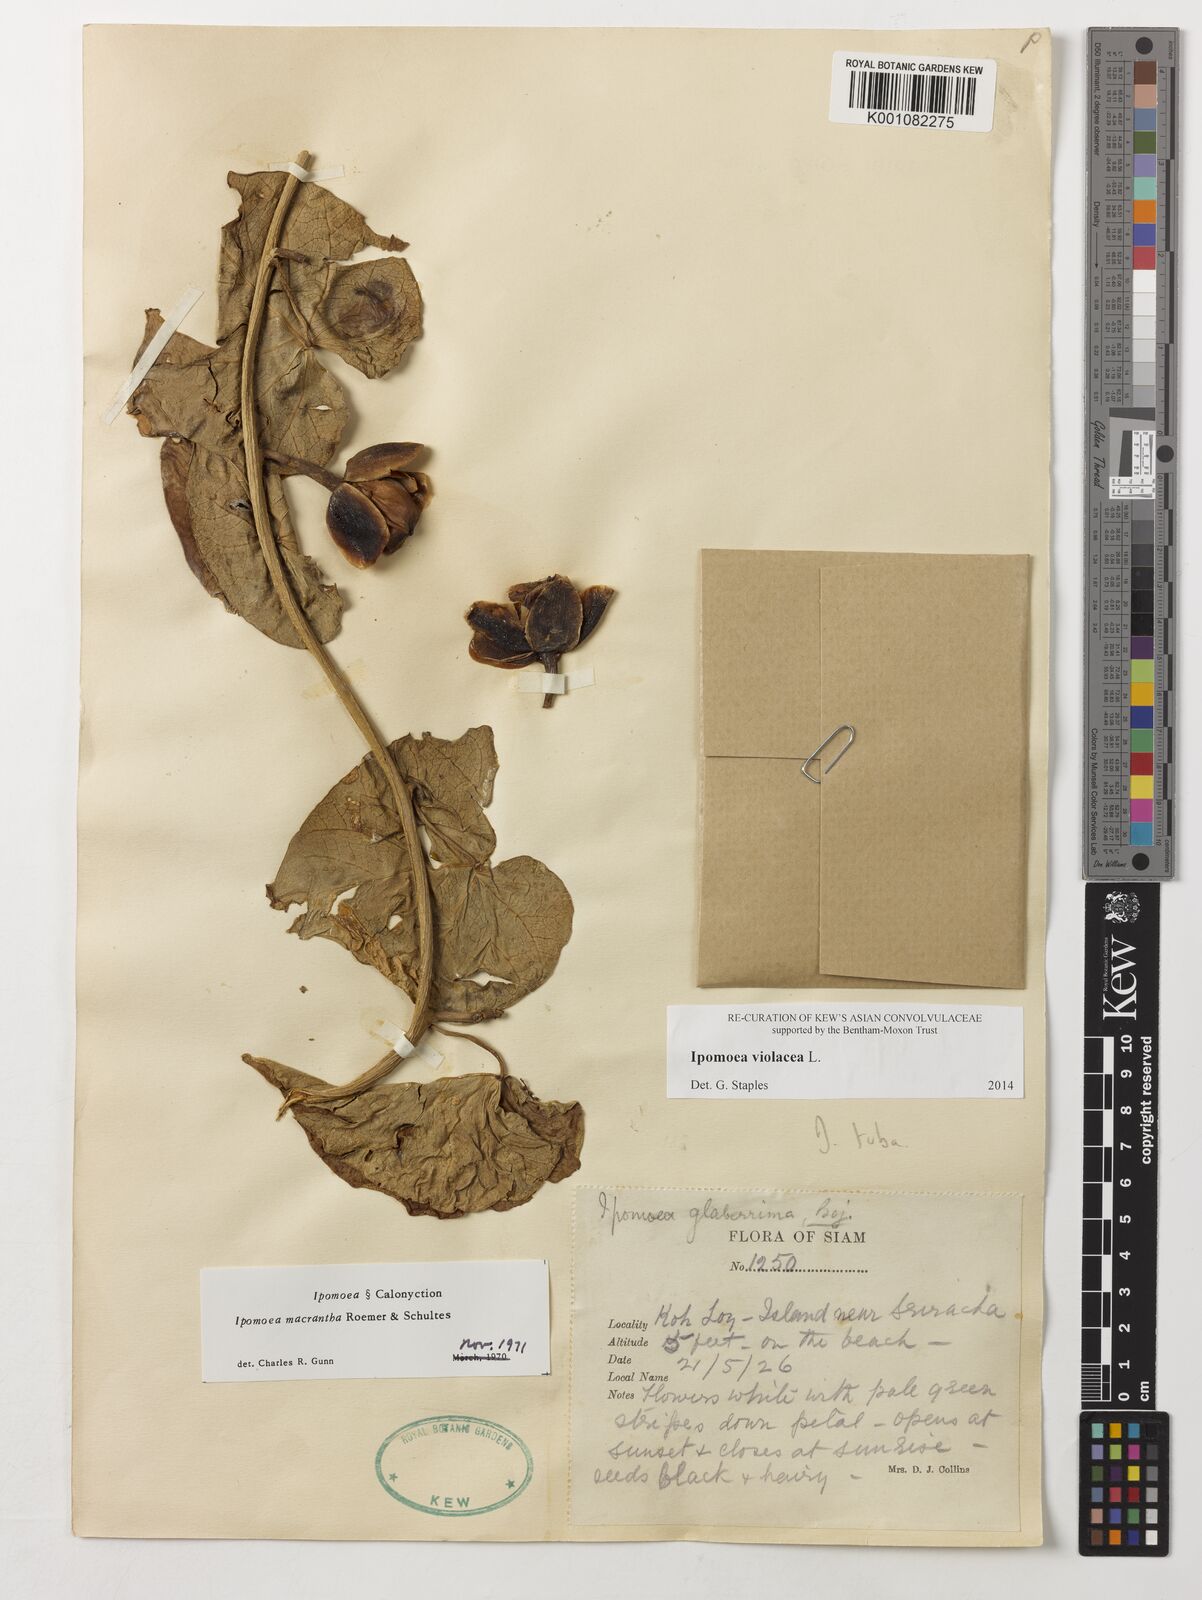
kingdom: Plantae
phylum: Tracheophyta
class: Magnoliopsida
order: Solanales
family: Convolvulaceae
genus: Ipomoea
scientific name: Ipomoea violacea
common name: Beach moonflower
